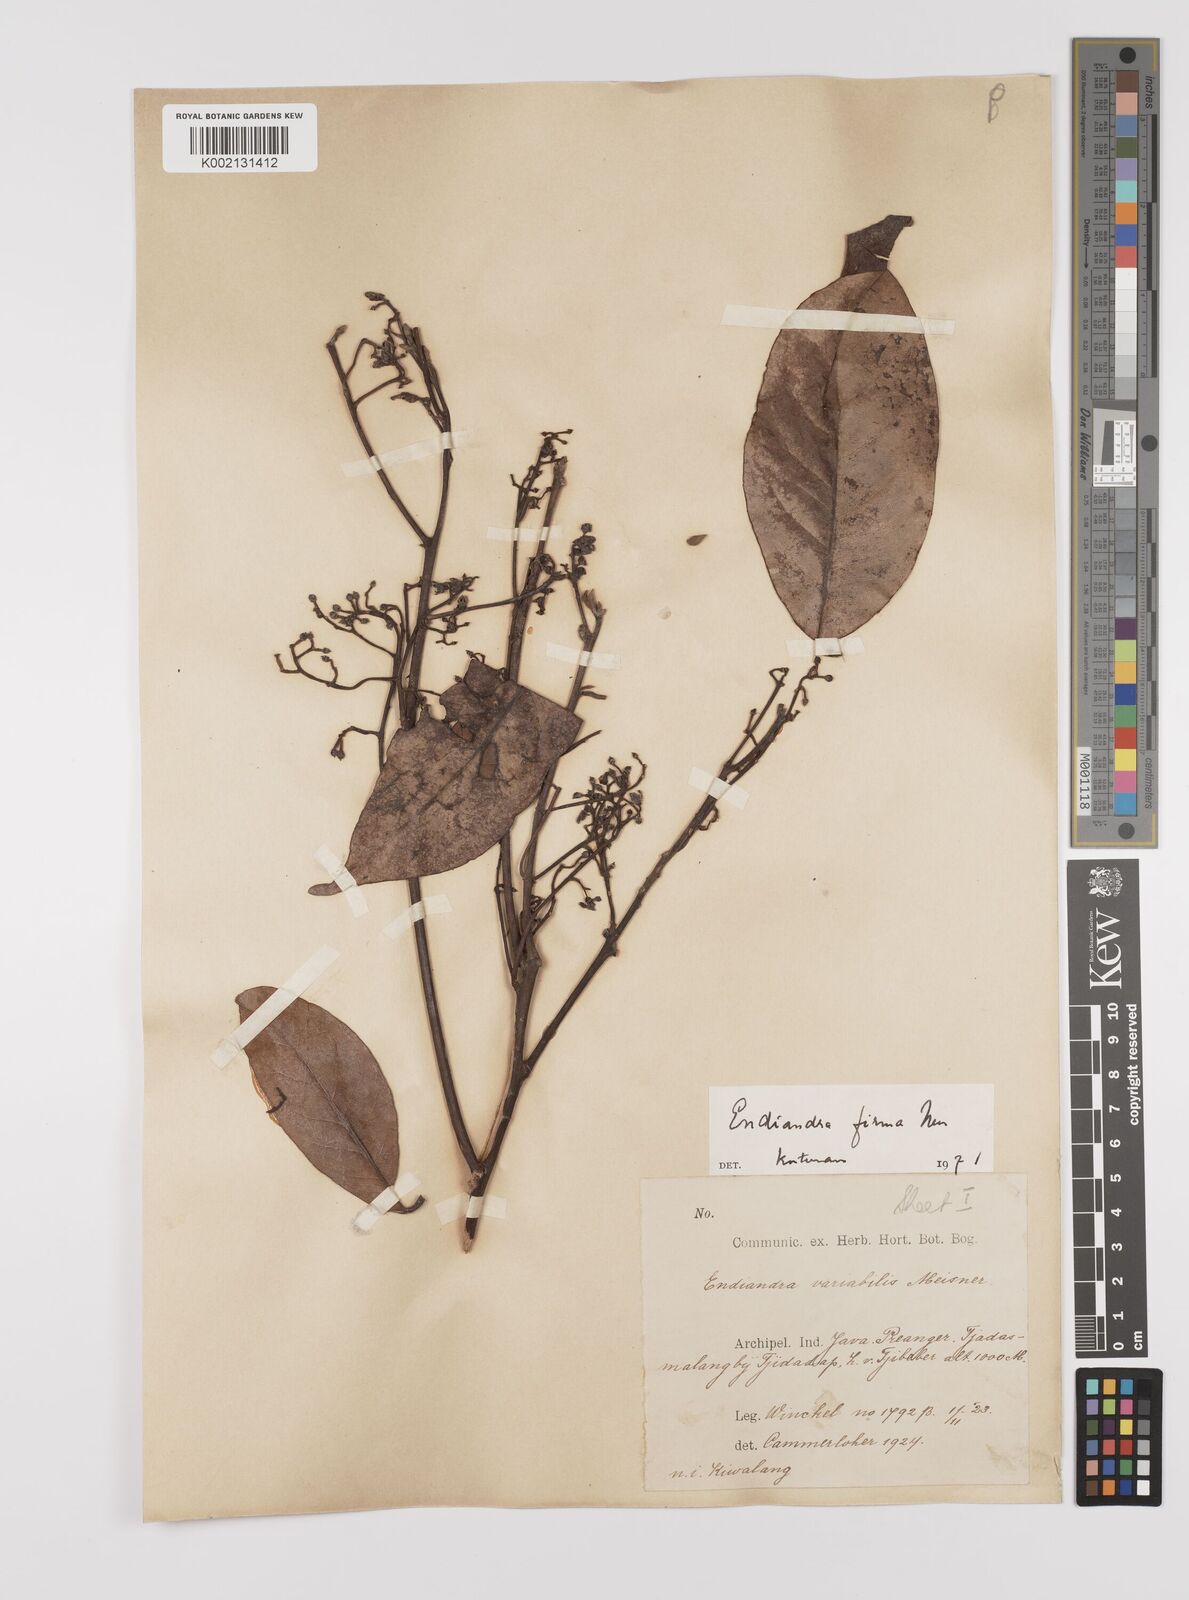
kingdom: Plantae
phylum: Tracheophyta
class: Magnoliopsida
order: Laurales
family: Lauraceae
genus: Endiandra
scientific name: Endiandra firma
